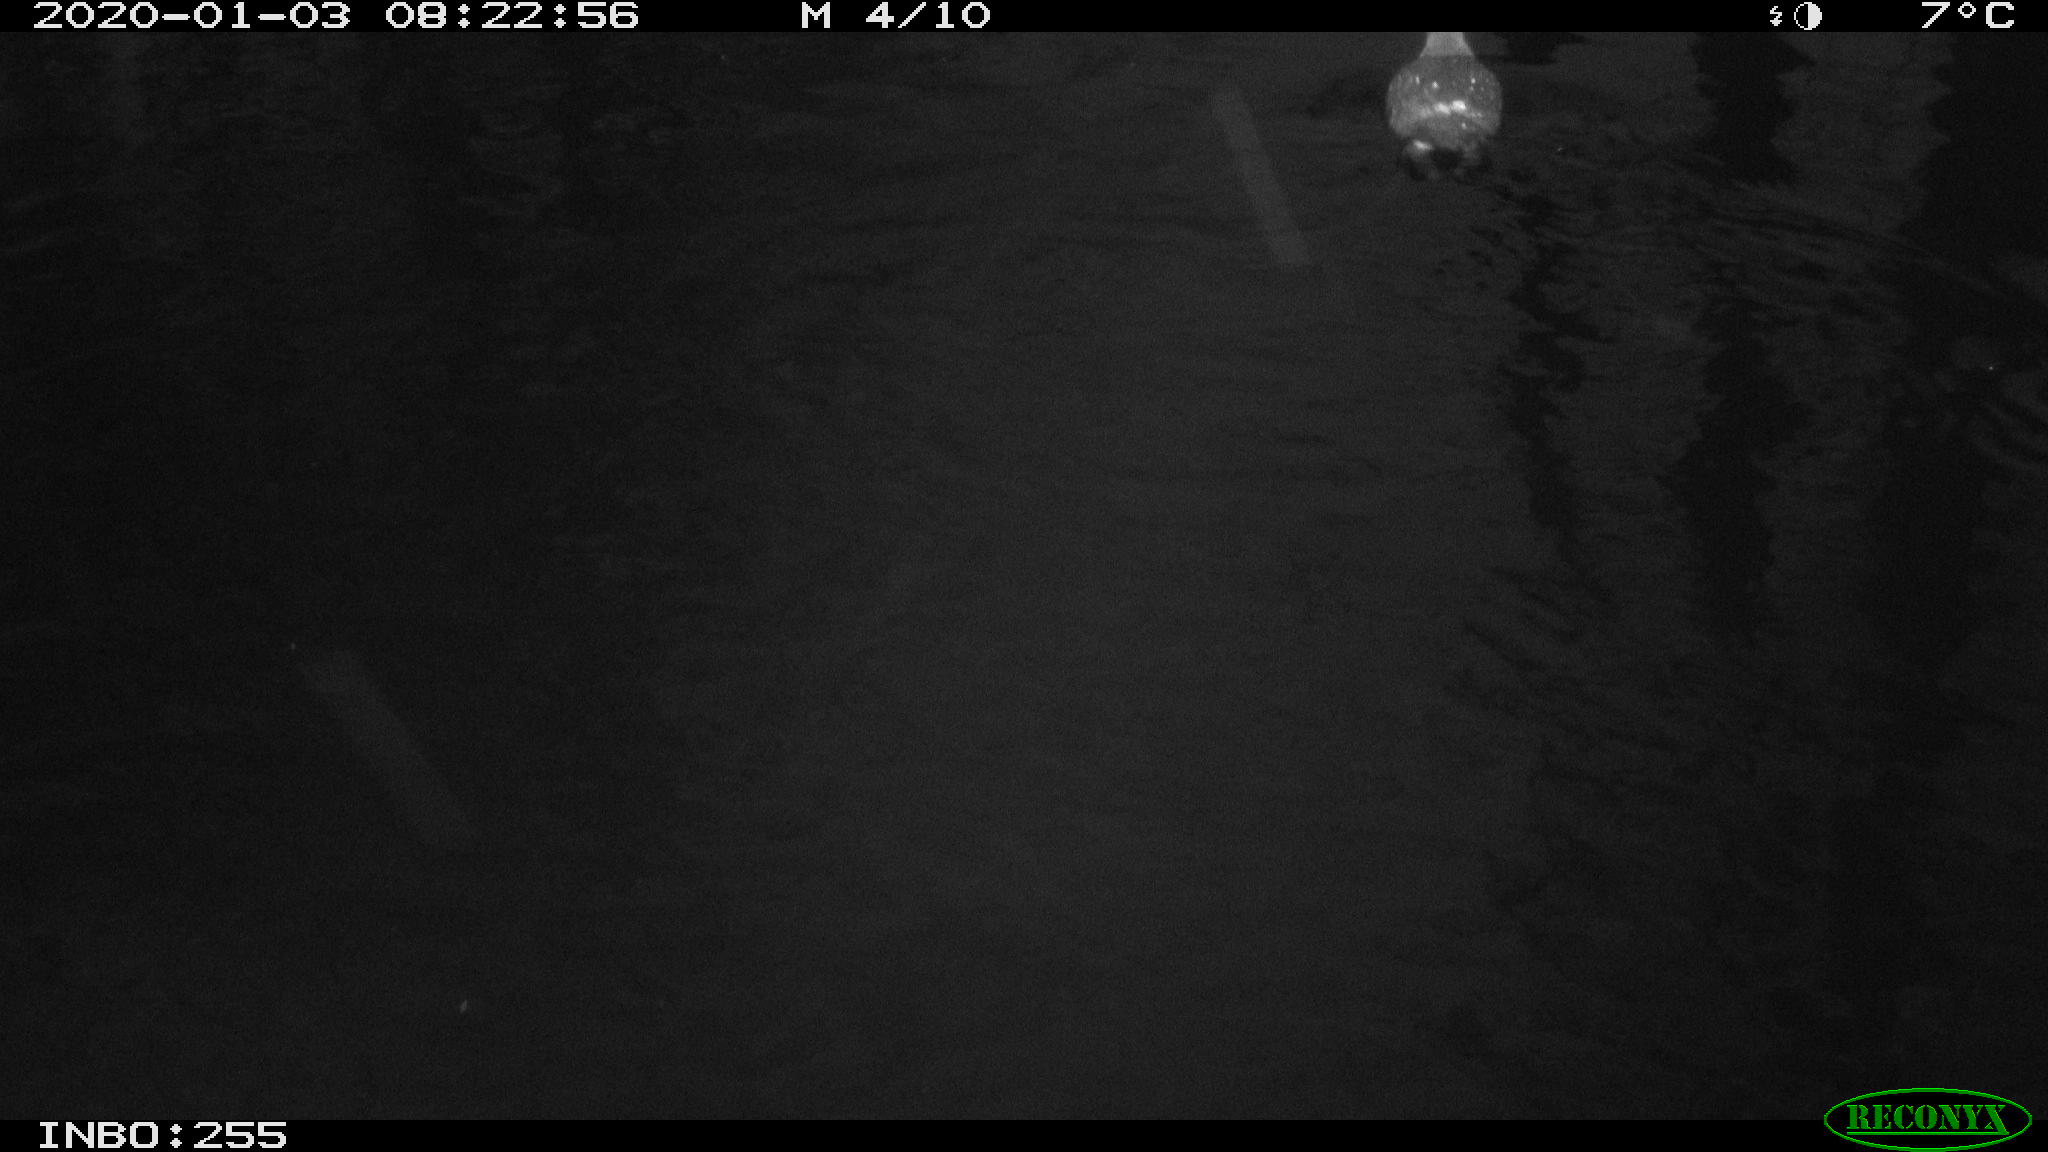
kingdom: Animalia
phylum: Chordata
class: Aves
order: Gruiformes
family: Rallidae
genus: Gallinula
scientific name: Gallinula chloropus
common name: Common moorhen
